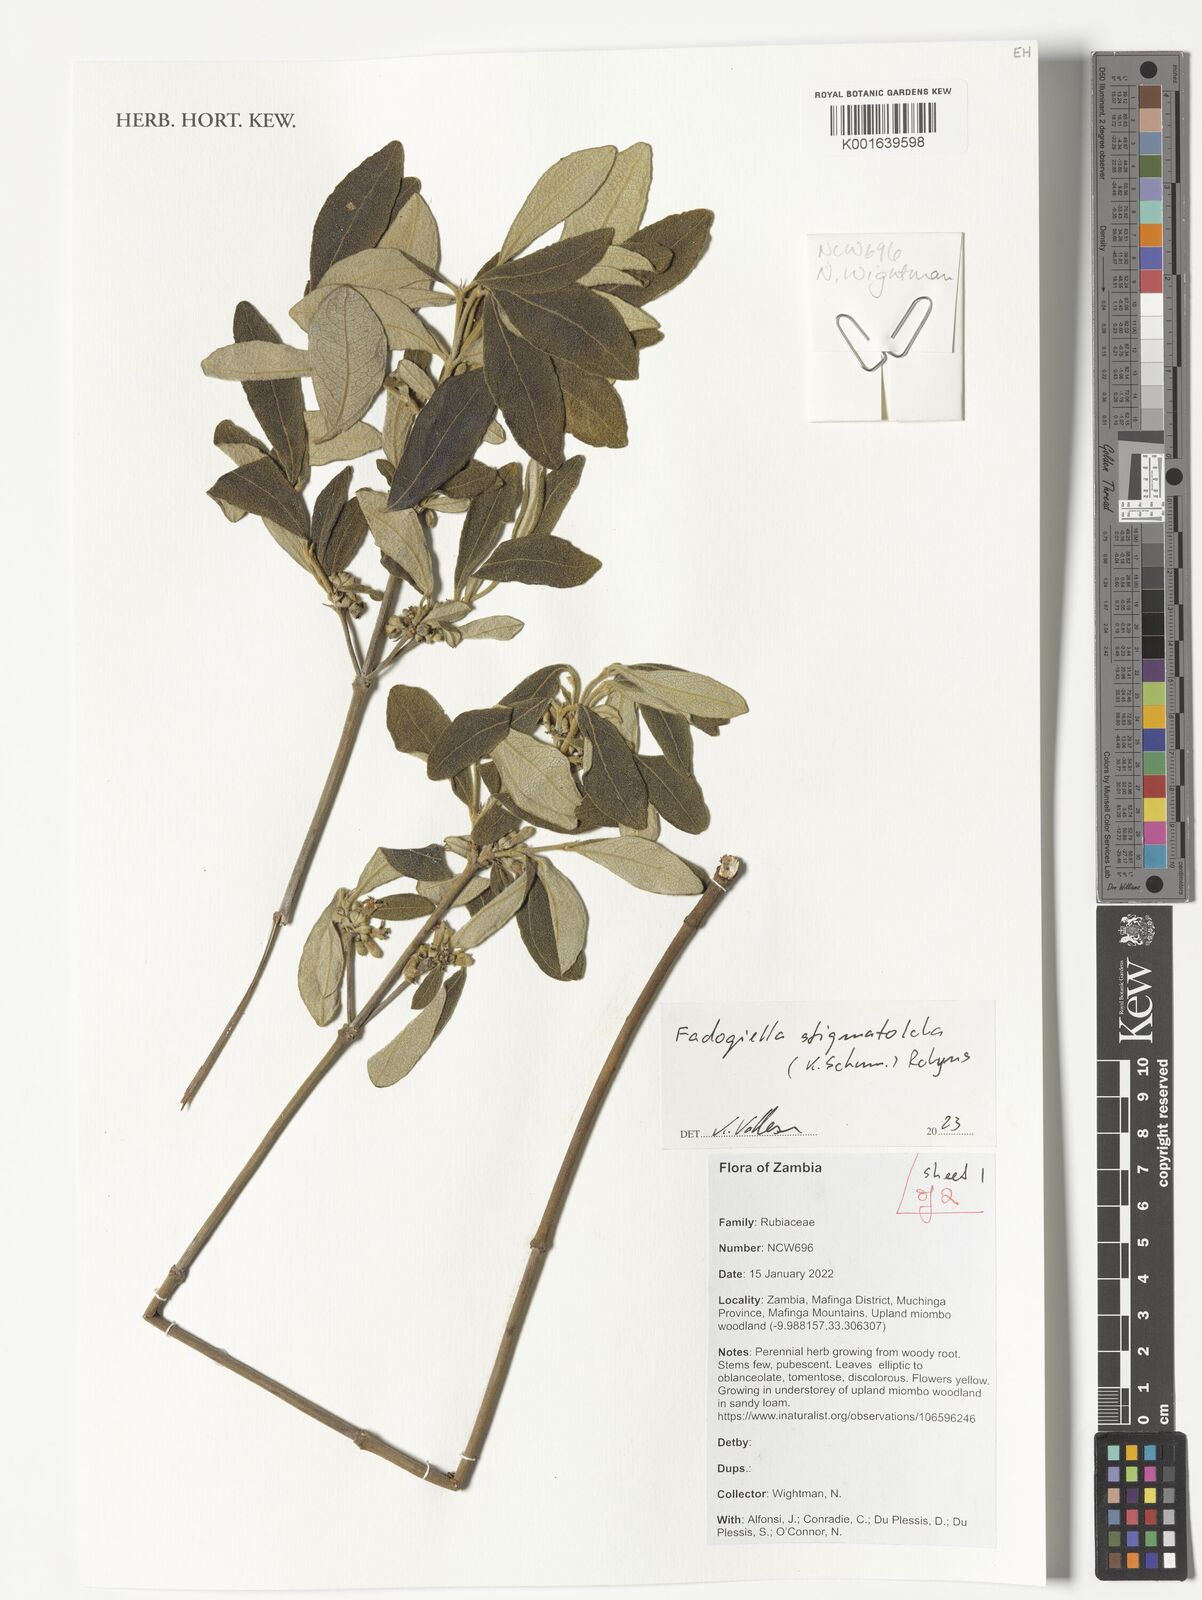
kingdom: Plantae
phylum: Tracheophyta
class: Magnoliopsida
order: Gentianales
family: Rubiaceae
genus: Fadogiella
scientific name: Fadogiella stigmatoloba
